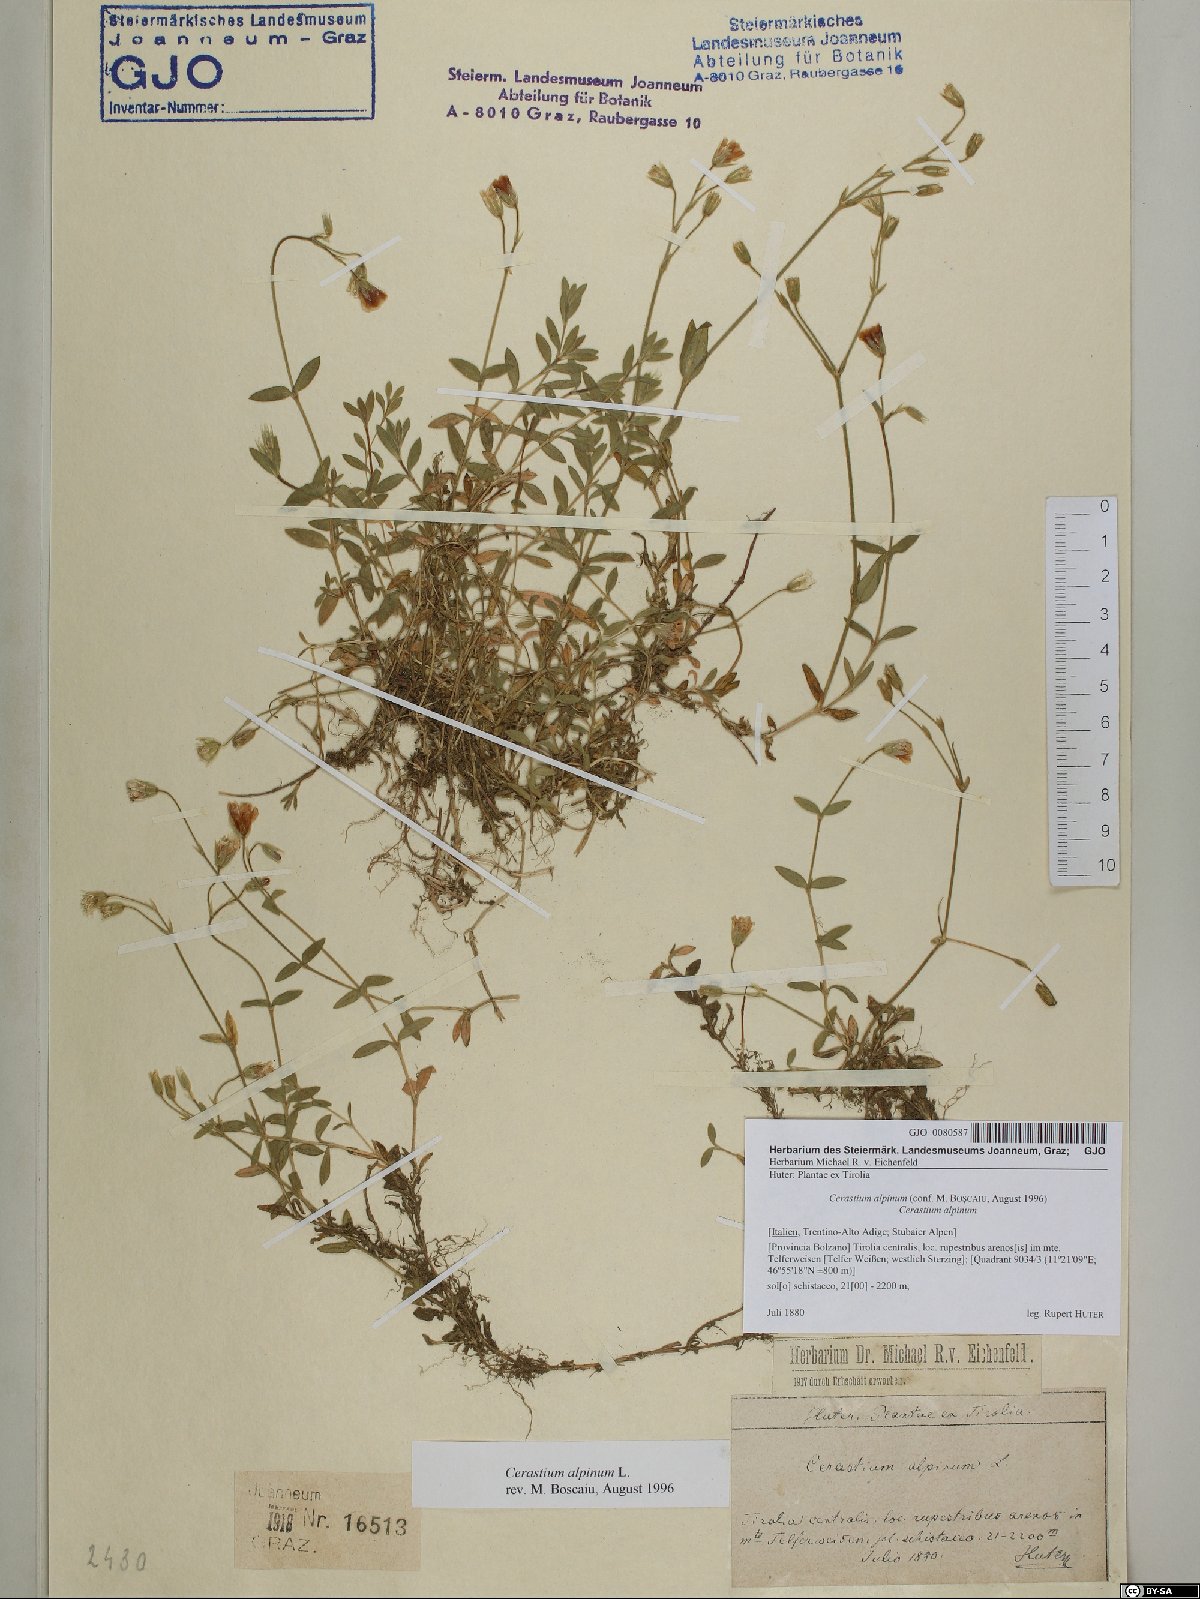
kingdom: Plantae
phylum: Tracheophyta
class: Magnoliopsida
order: Caryophyllales
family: Caryophyllaceae
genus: Cerastium
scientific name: Cerastium alpinum
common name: Alpine mouse-ear
